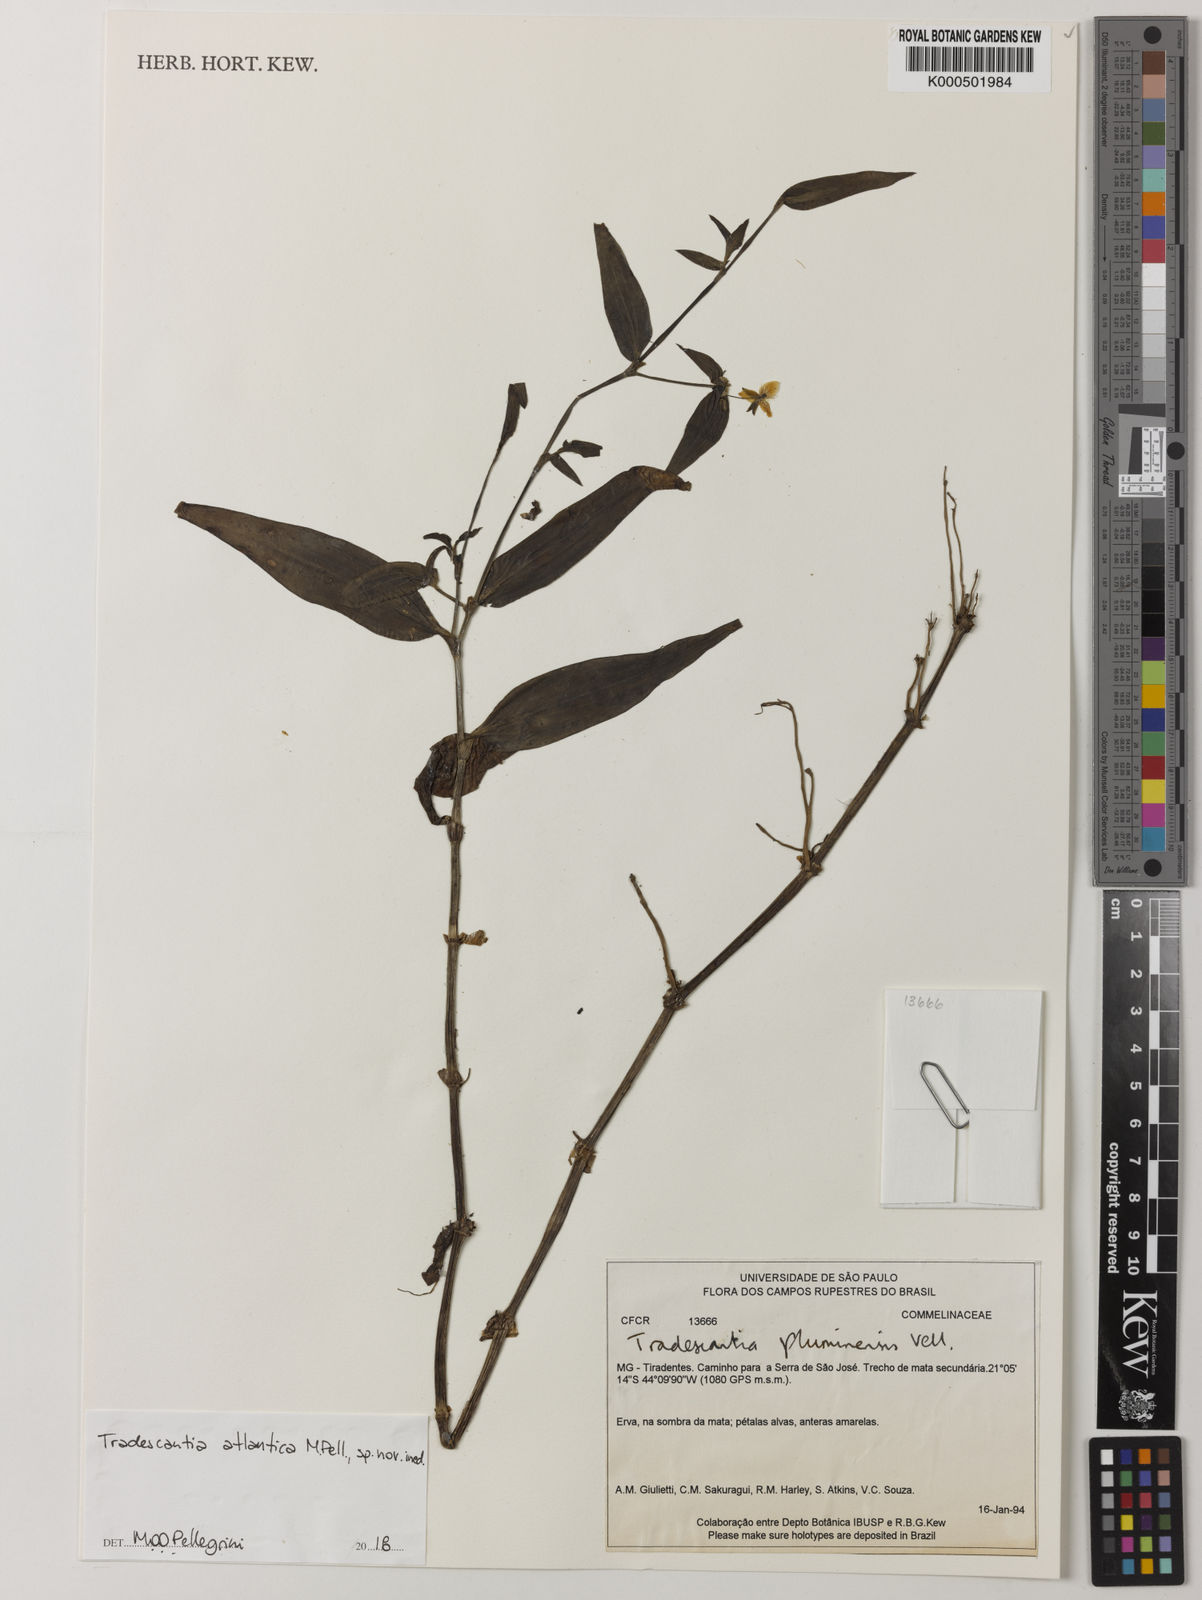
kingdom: Plantae
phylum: Tracheophyta
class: Liliopsida
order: Commelinales
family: Commelinaceae
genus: Tradescantia
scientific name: Tradescantia atlantica
